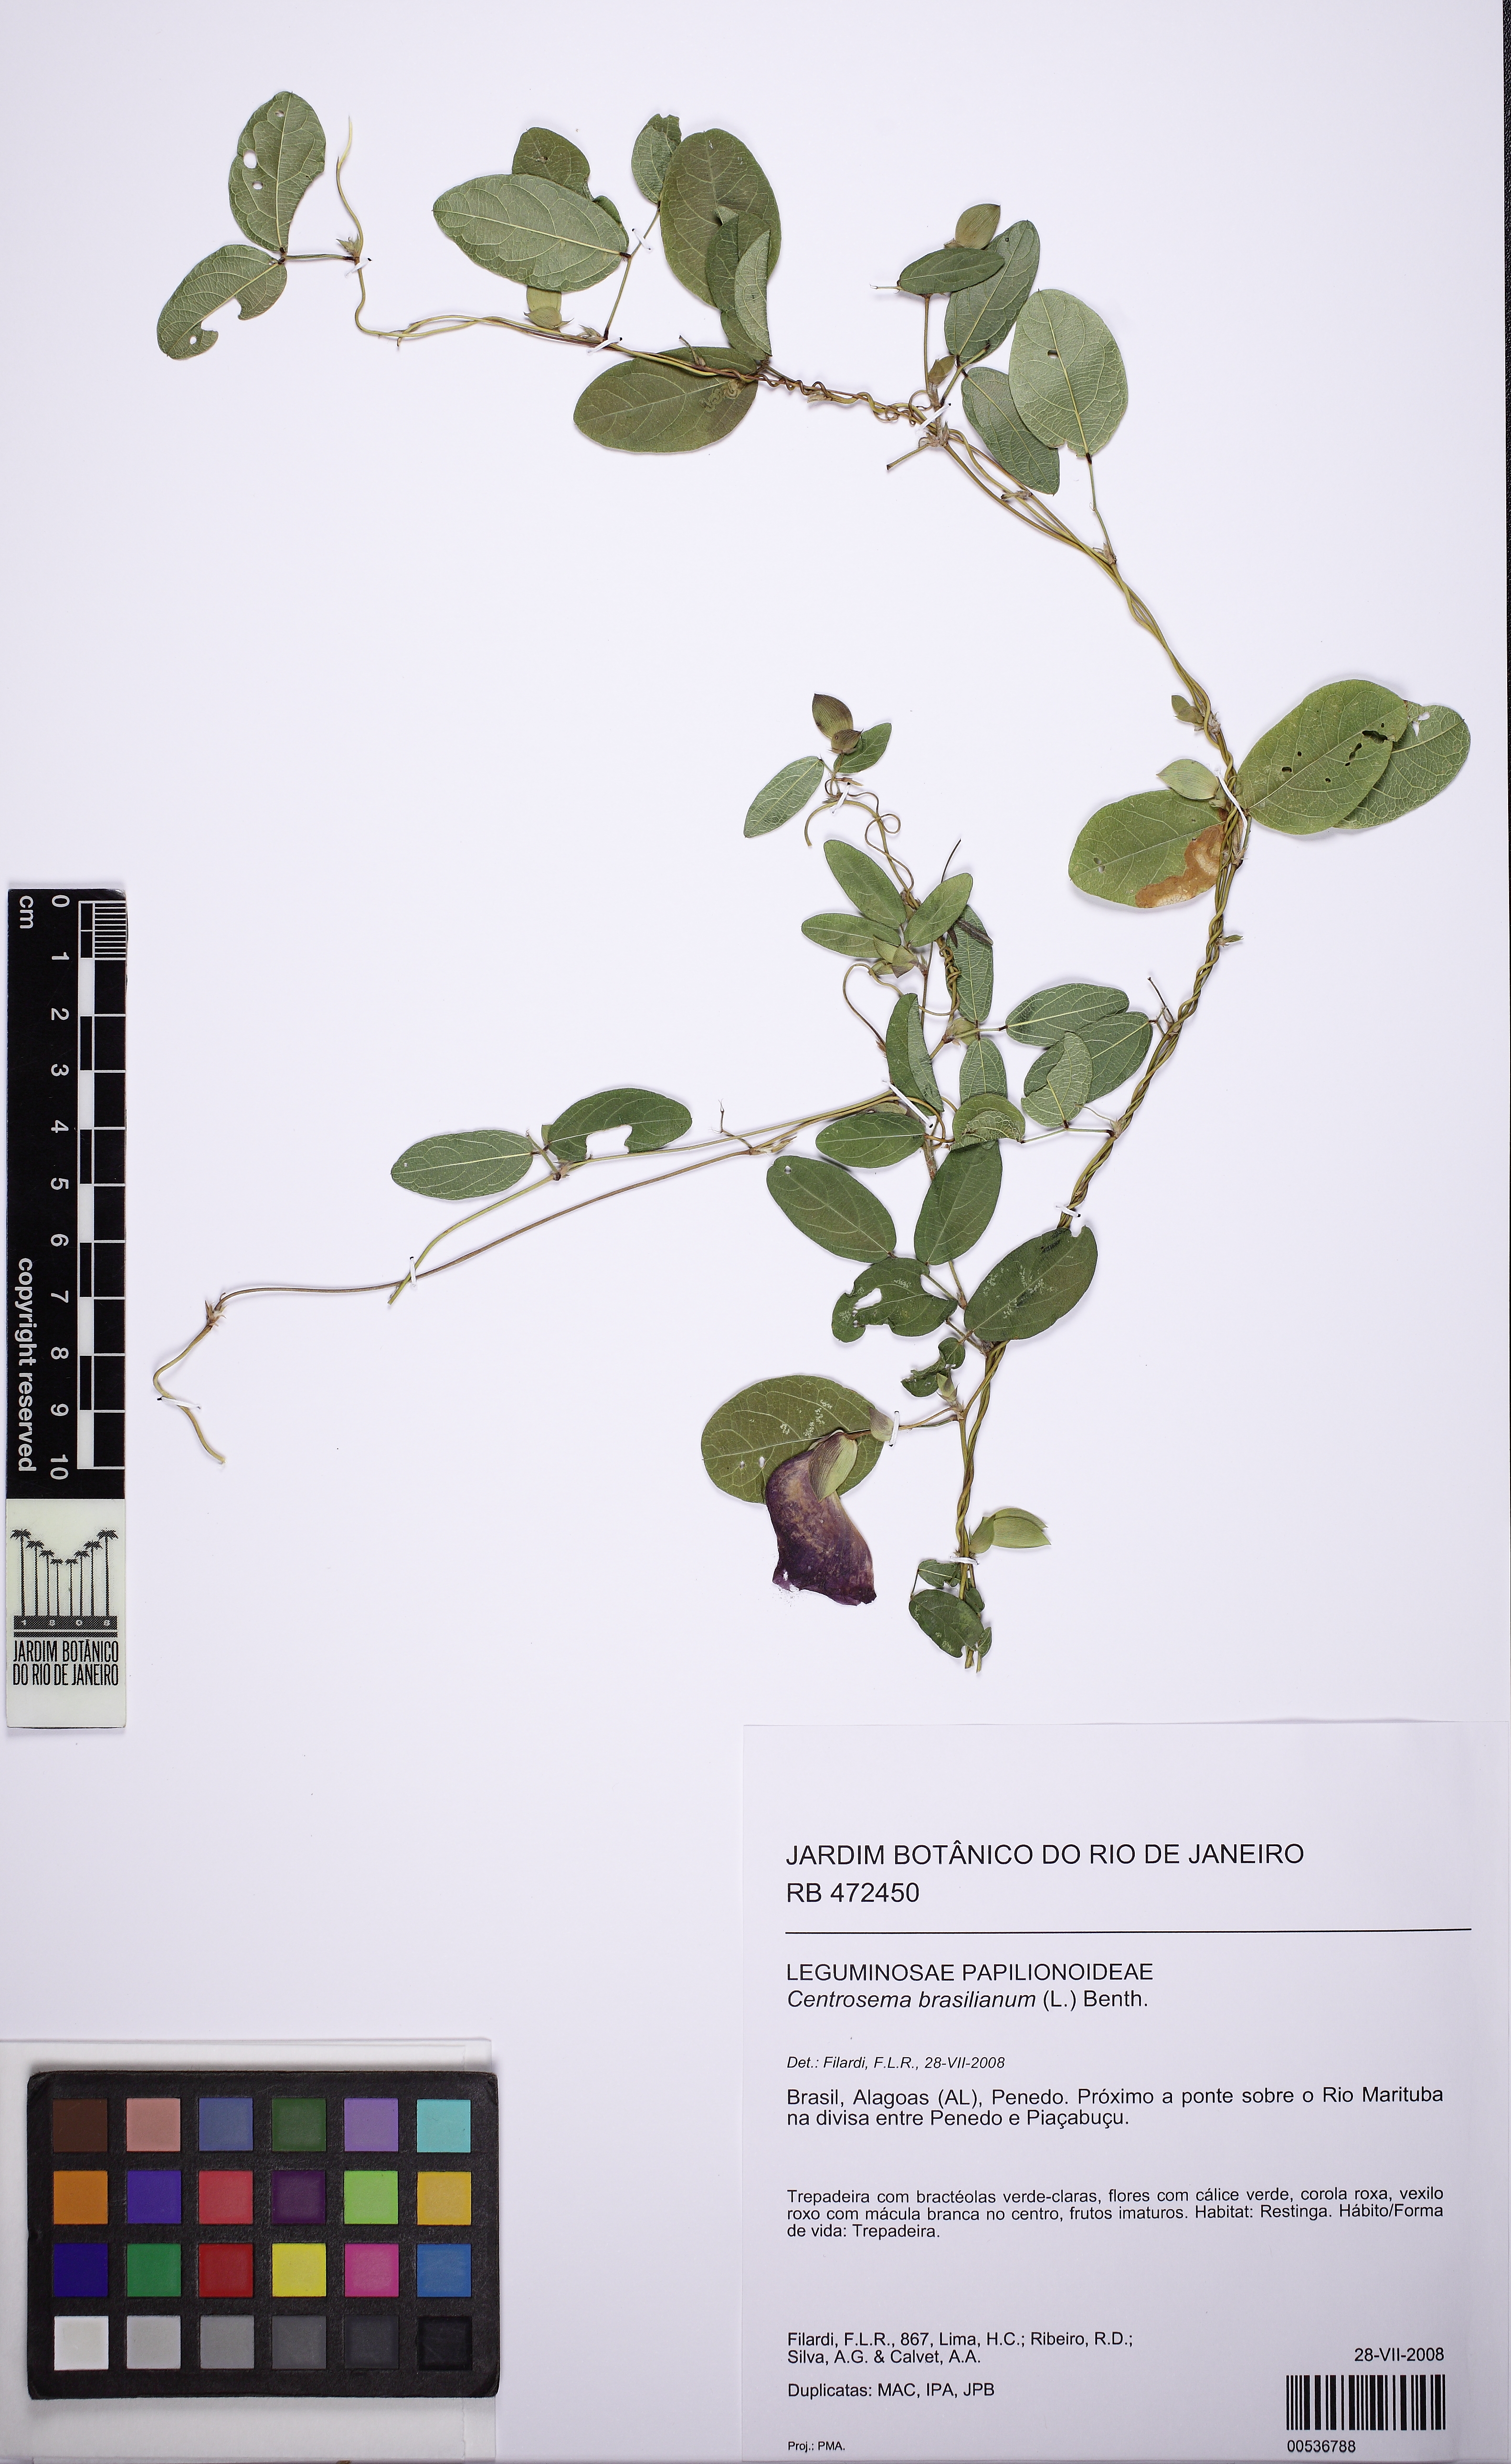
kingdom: Plantae
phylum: Tracheophyta
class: Magnoliopsida
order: Fabales
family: Fabaceae
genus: Centrosema
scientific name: Centrosema brasilianum
